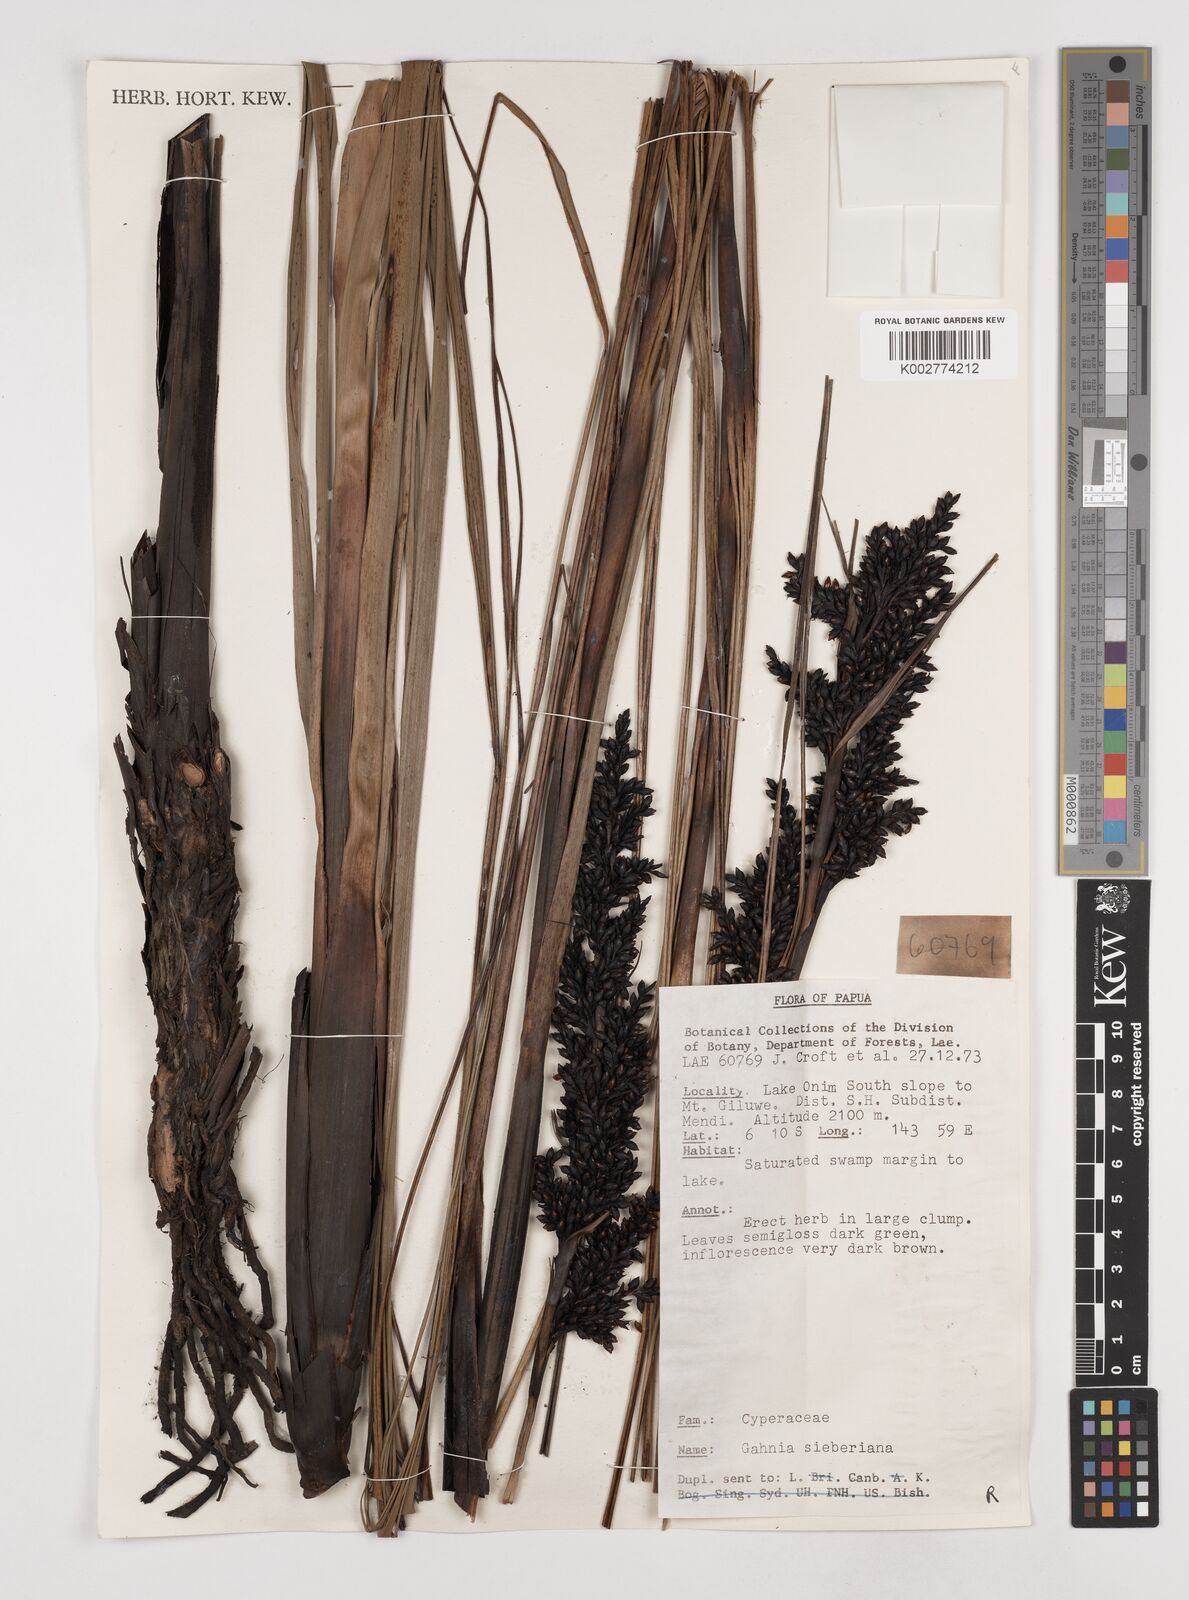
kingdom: Plantae
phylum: Tracheophyta
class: Liliopsida
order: Poales
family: Cyperaceae
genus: Gahnia
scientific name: Gahnia sieberiana
